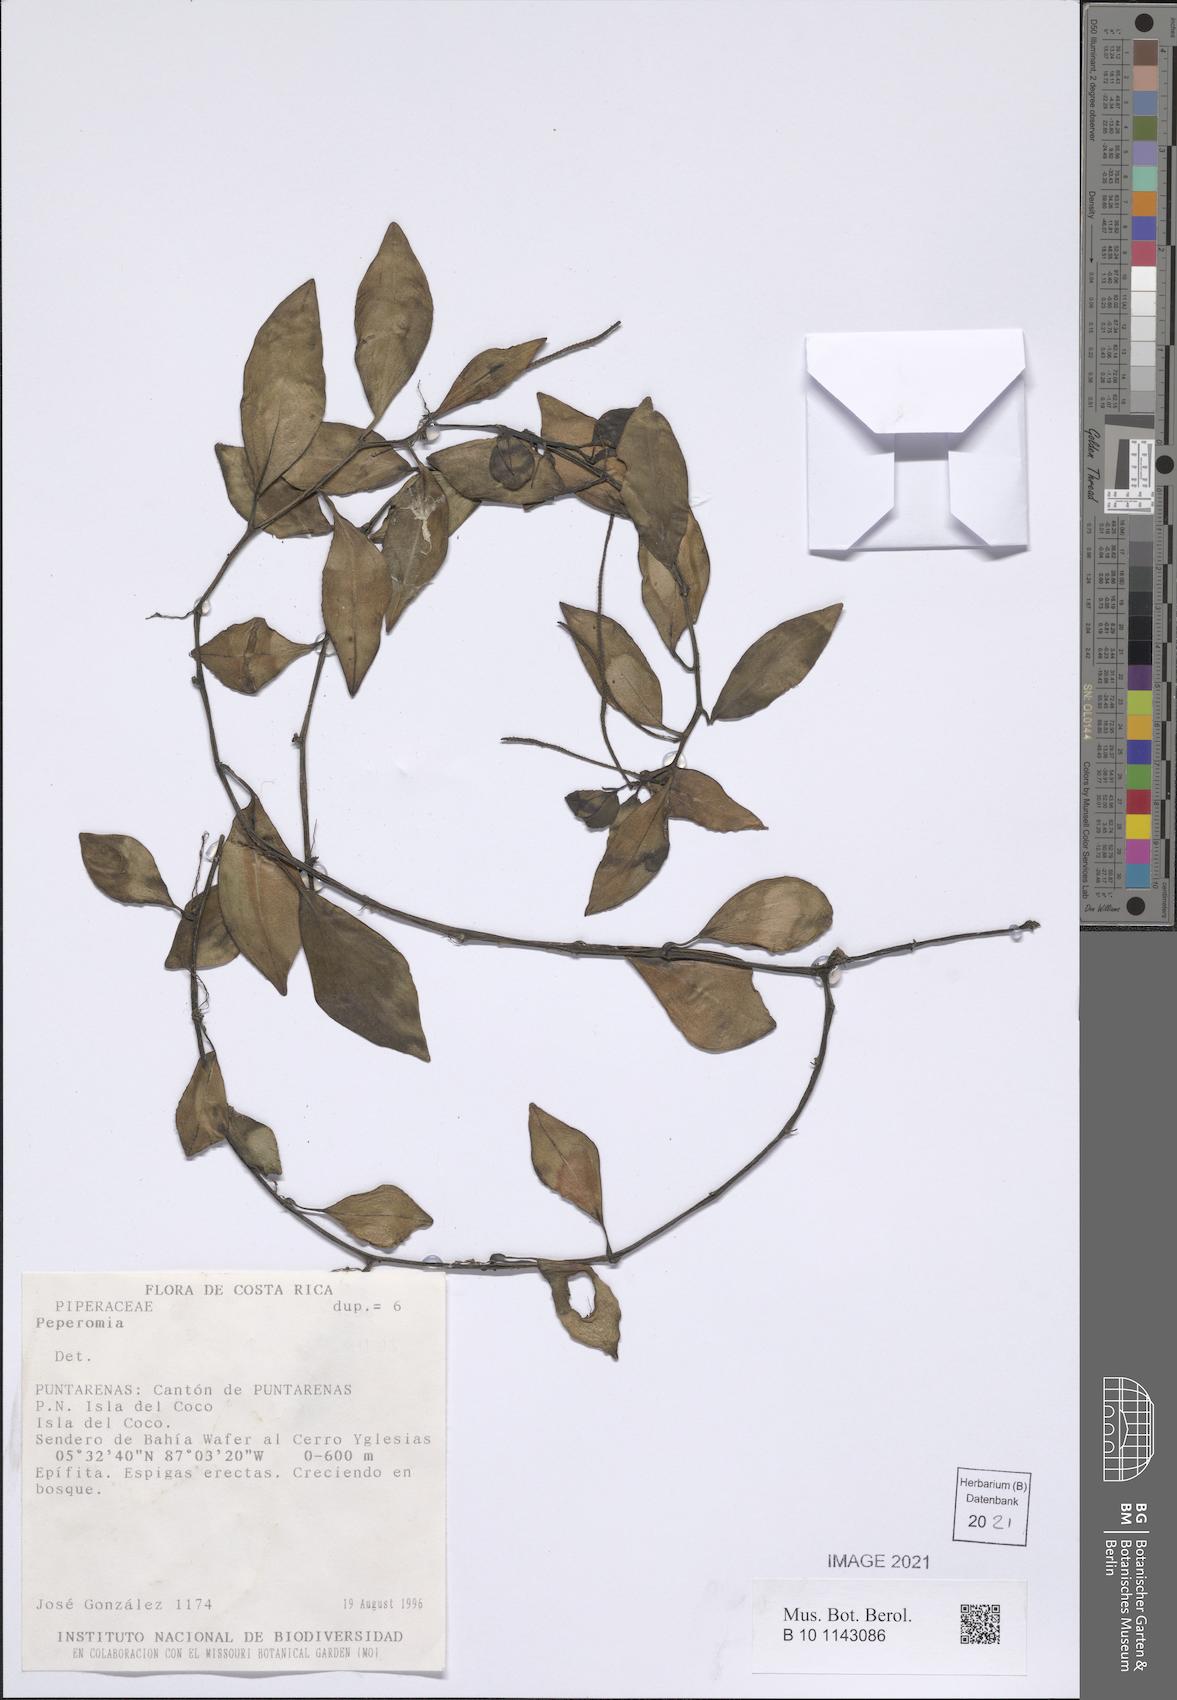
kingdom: Plantae
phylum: Tracheophyta
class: Magnoliopsida
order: Piperales
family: Piperaceae
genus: Peperomia
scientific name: Peperomia
